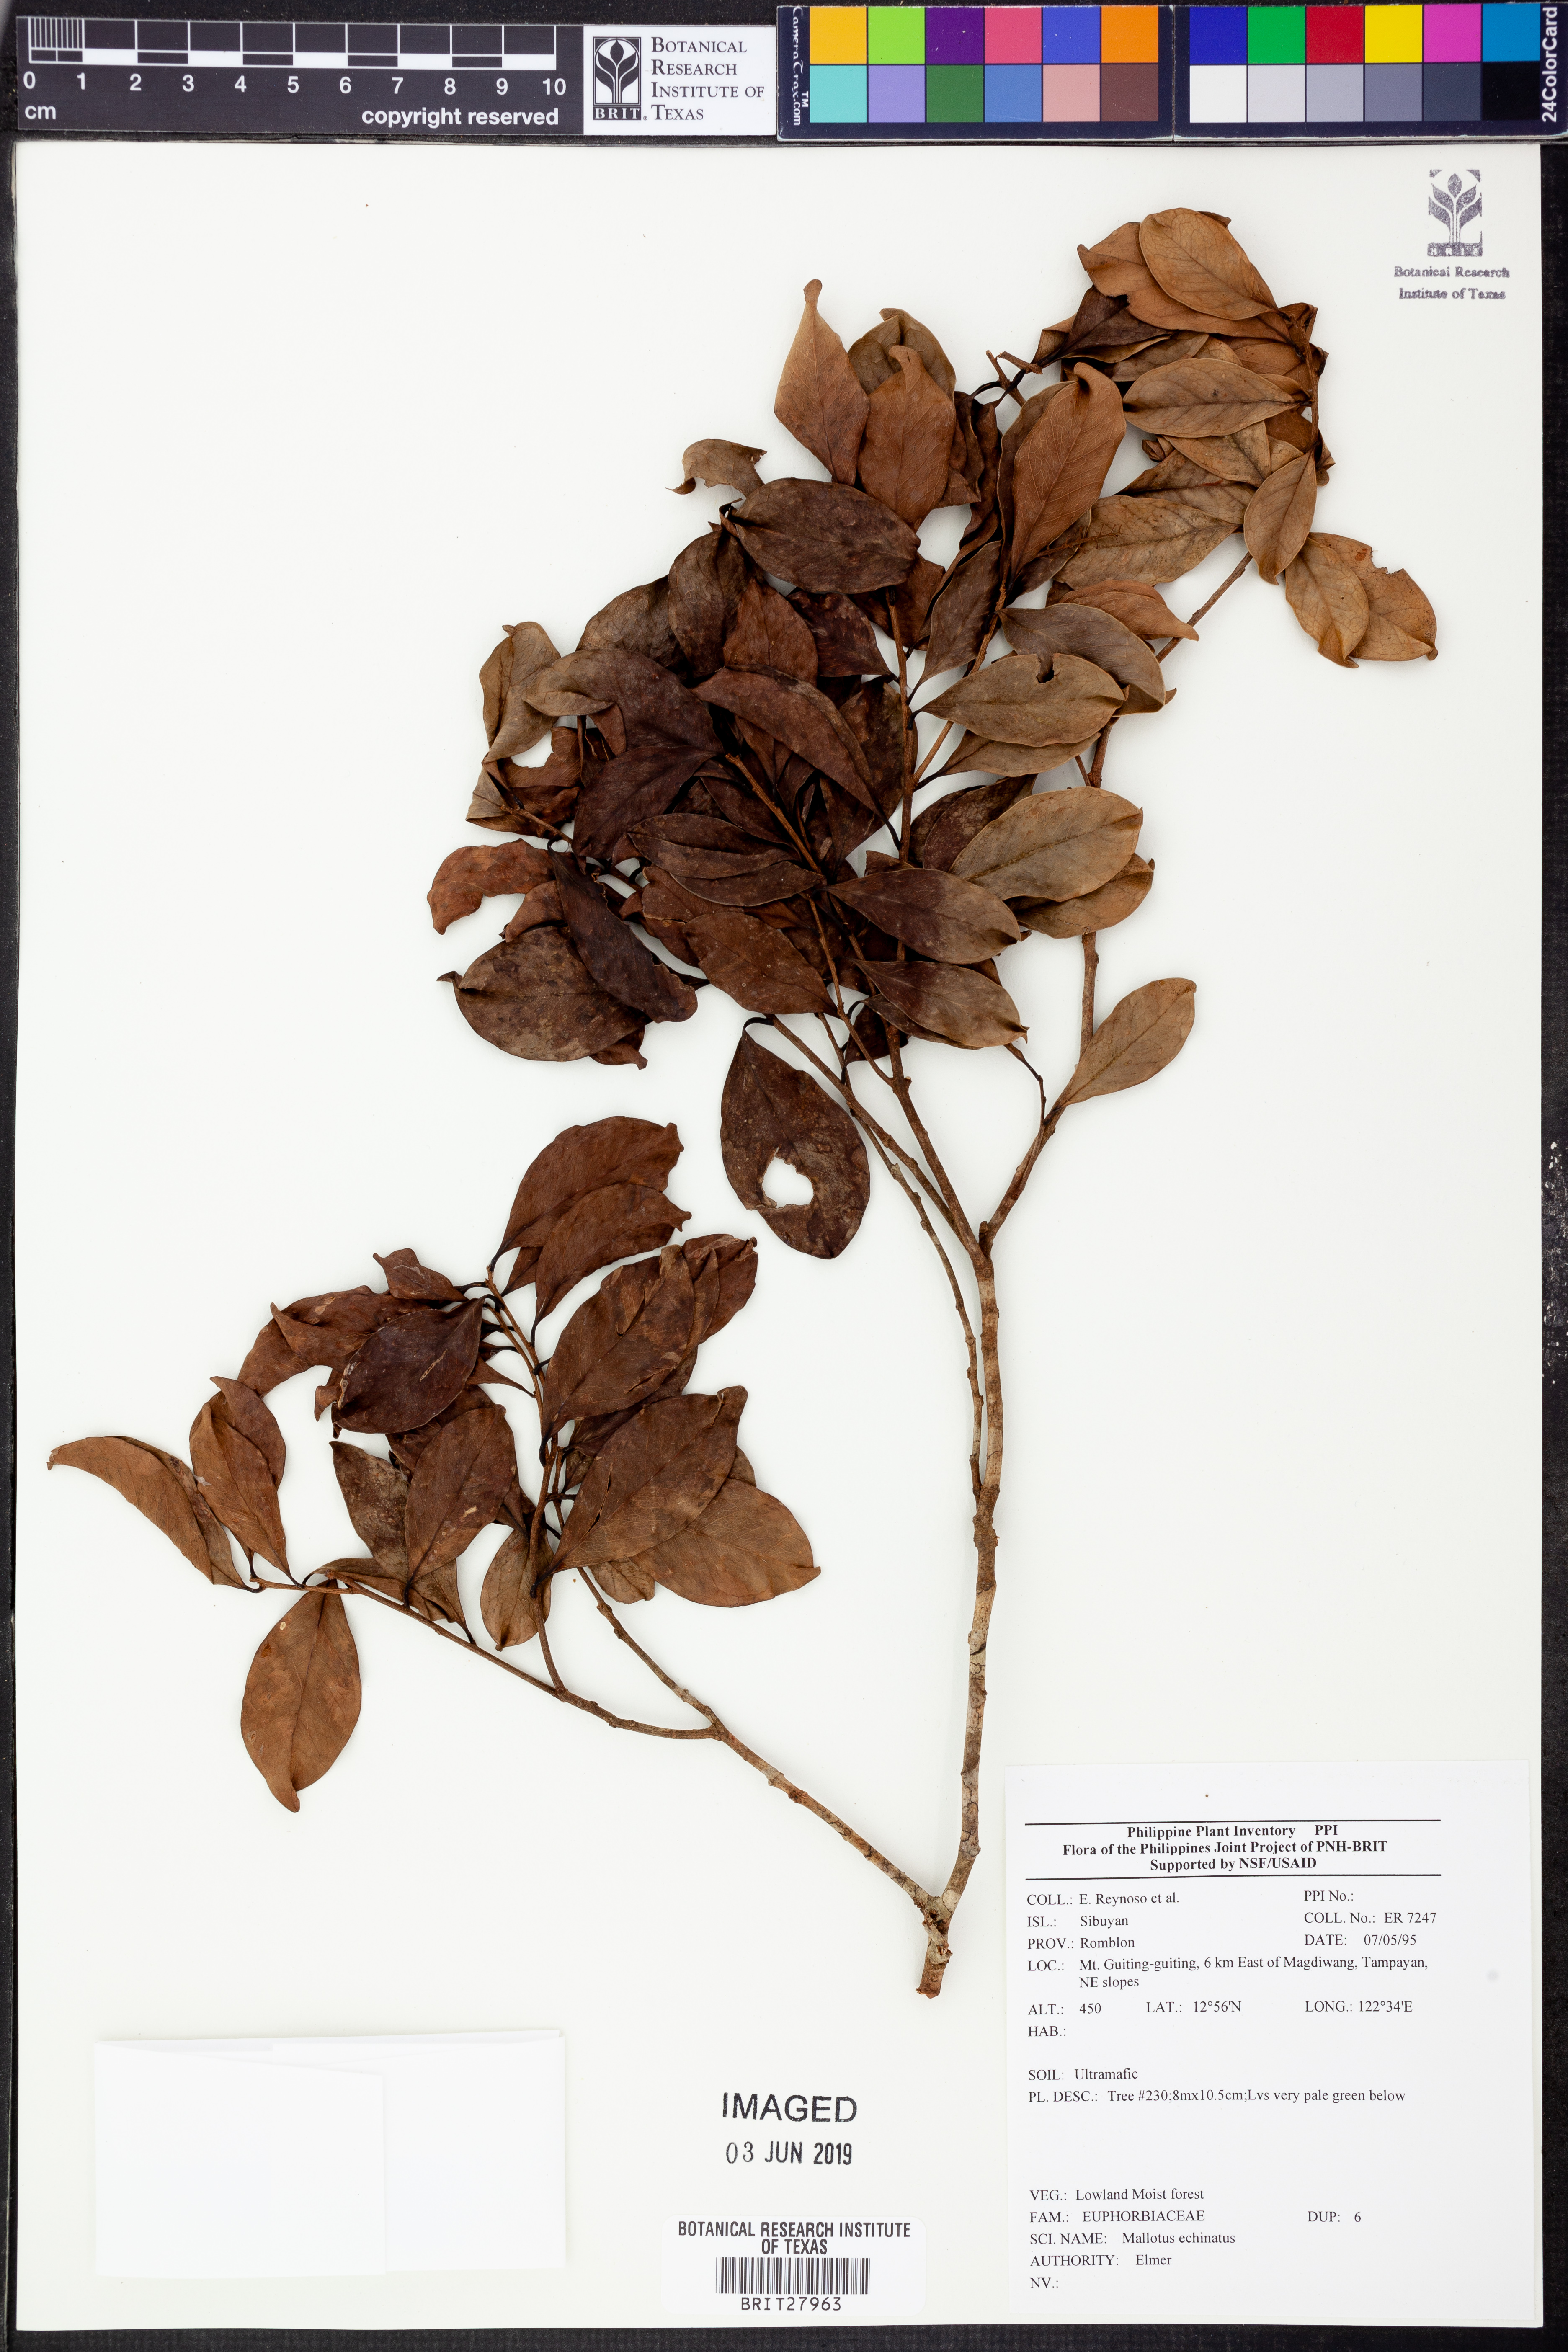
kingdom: Plantae
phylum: Tracheophyta
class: Magnoliopsida
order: Malpighiales
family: Euphorbiaceae
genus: Hancea
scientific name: Hancea penangensis
